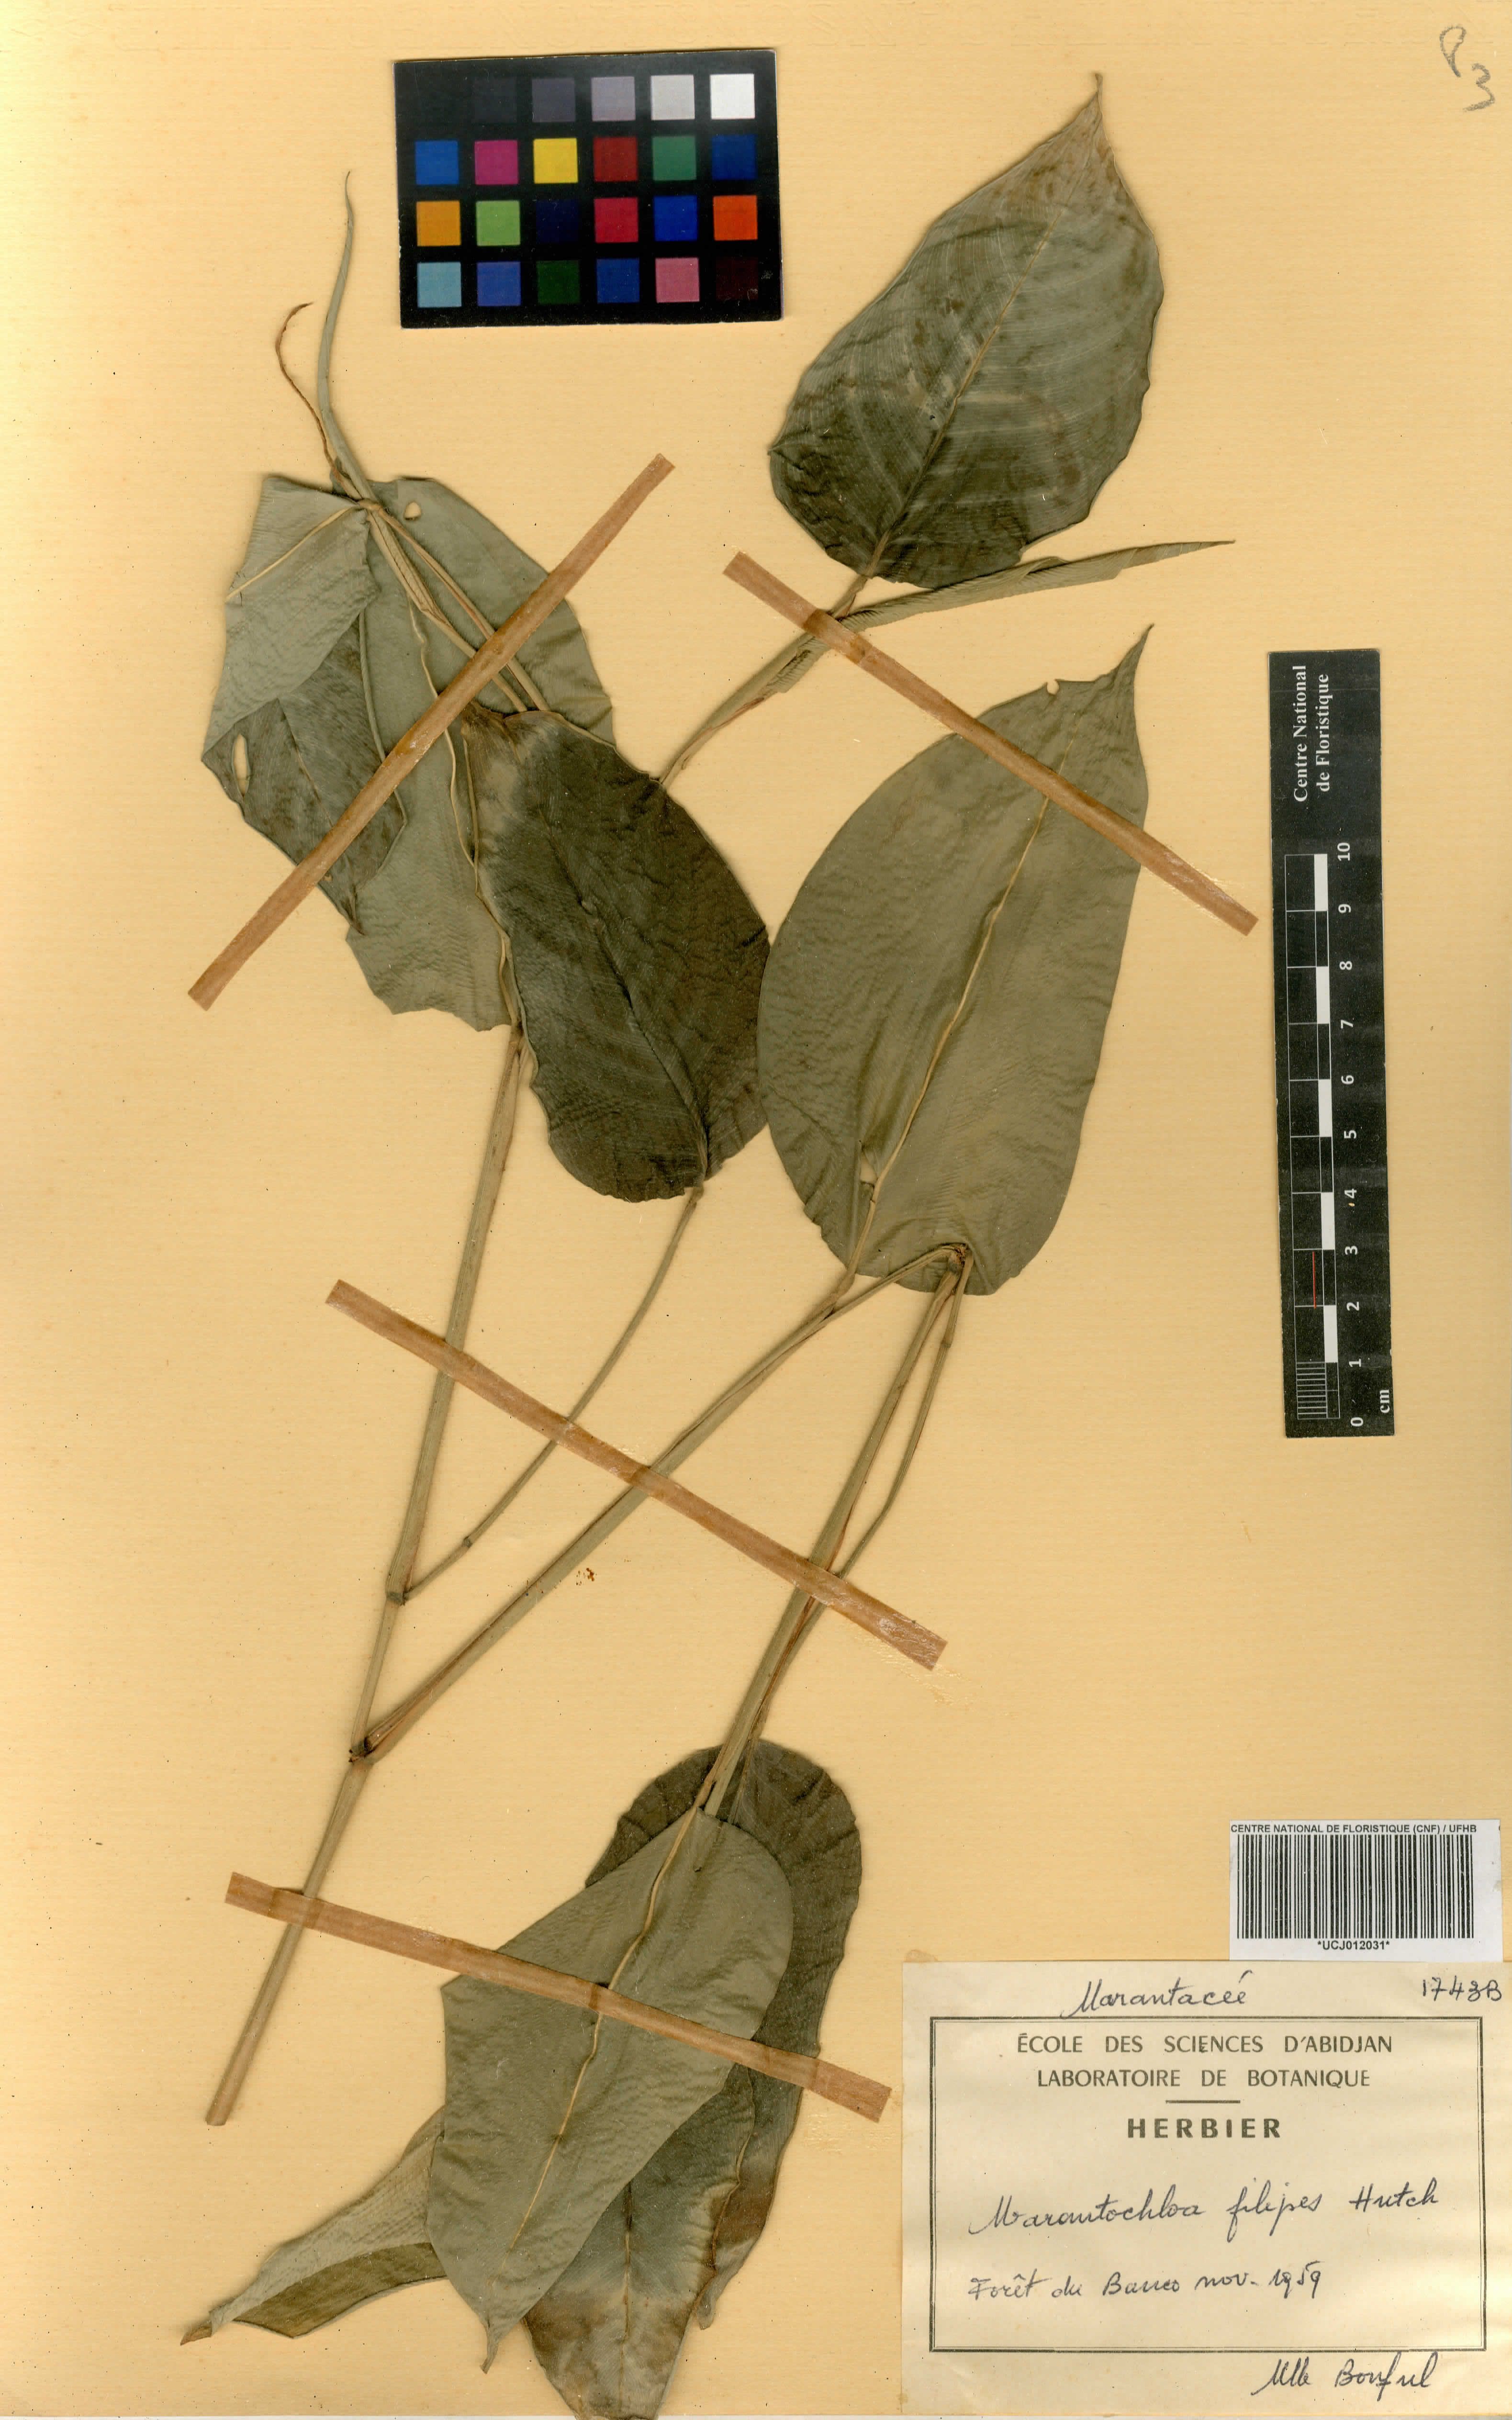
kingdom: Plantae
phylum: Tracheophyta
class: Liliopsida
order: Zingiberales
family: Marantaceae
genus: Marantochloa
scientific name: Marantochloa filipes
